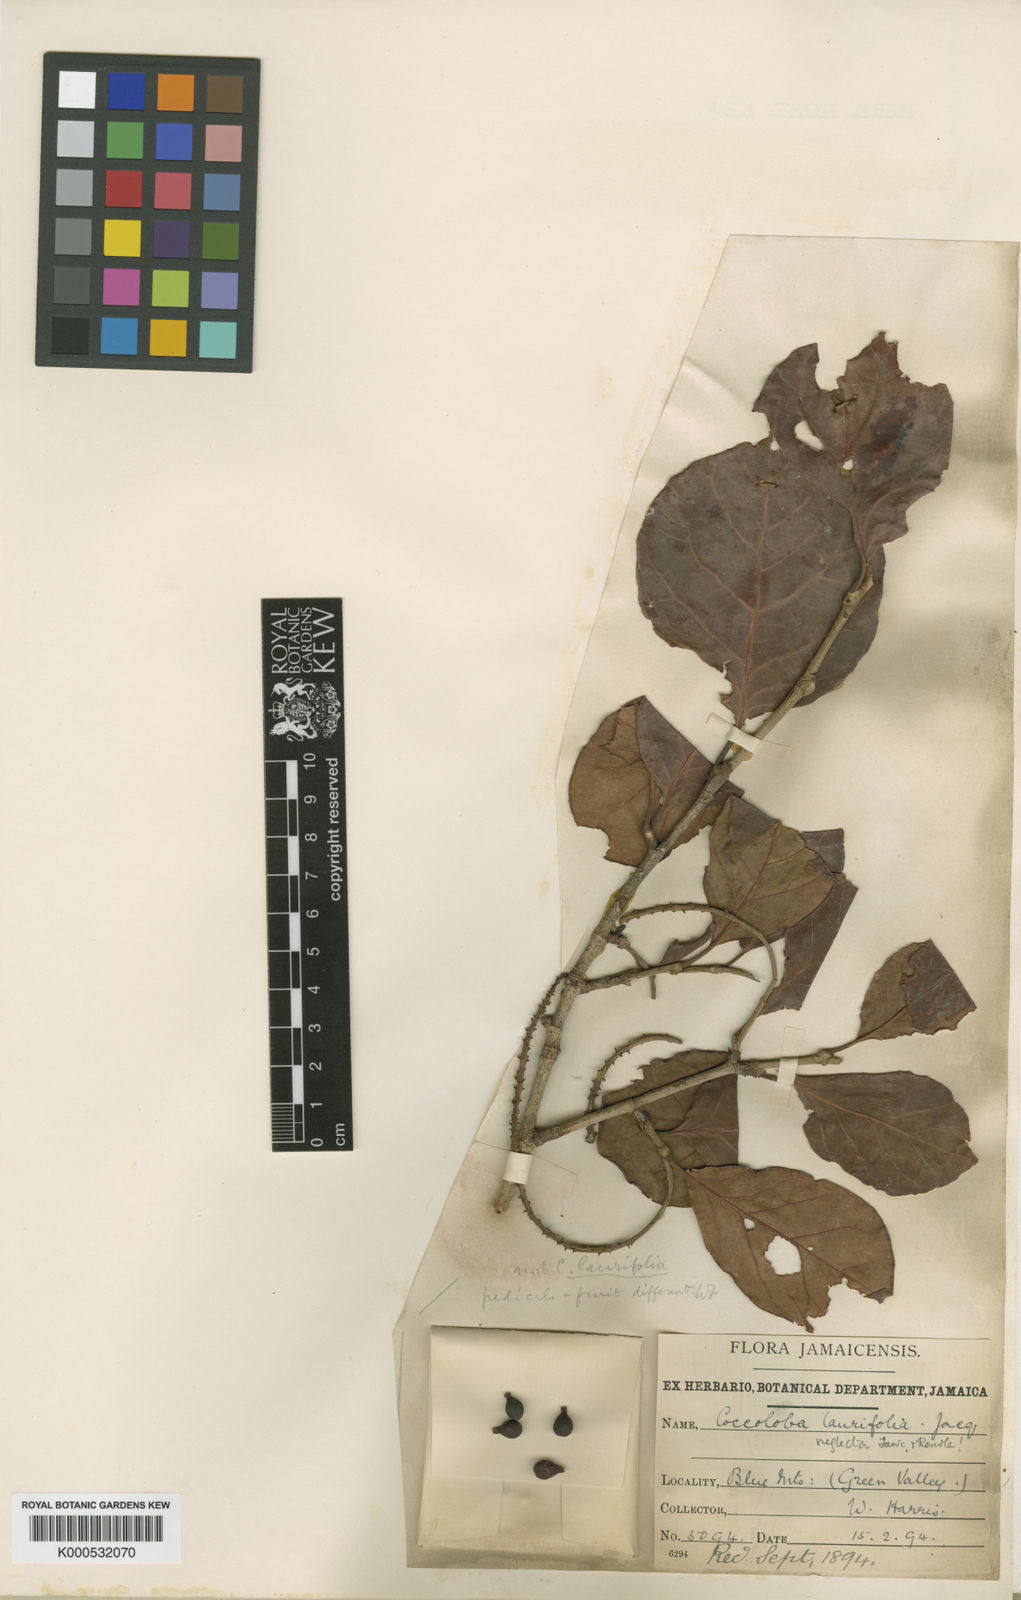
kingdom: Plantae
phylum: Tracheophyta
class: Magnoliopsida
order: Caryophyllales
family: Polygonaceae
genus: Coccoloba
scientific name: Coccoloba swartzii
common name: Red wood
